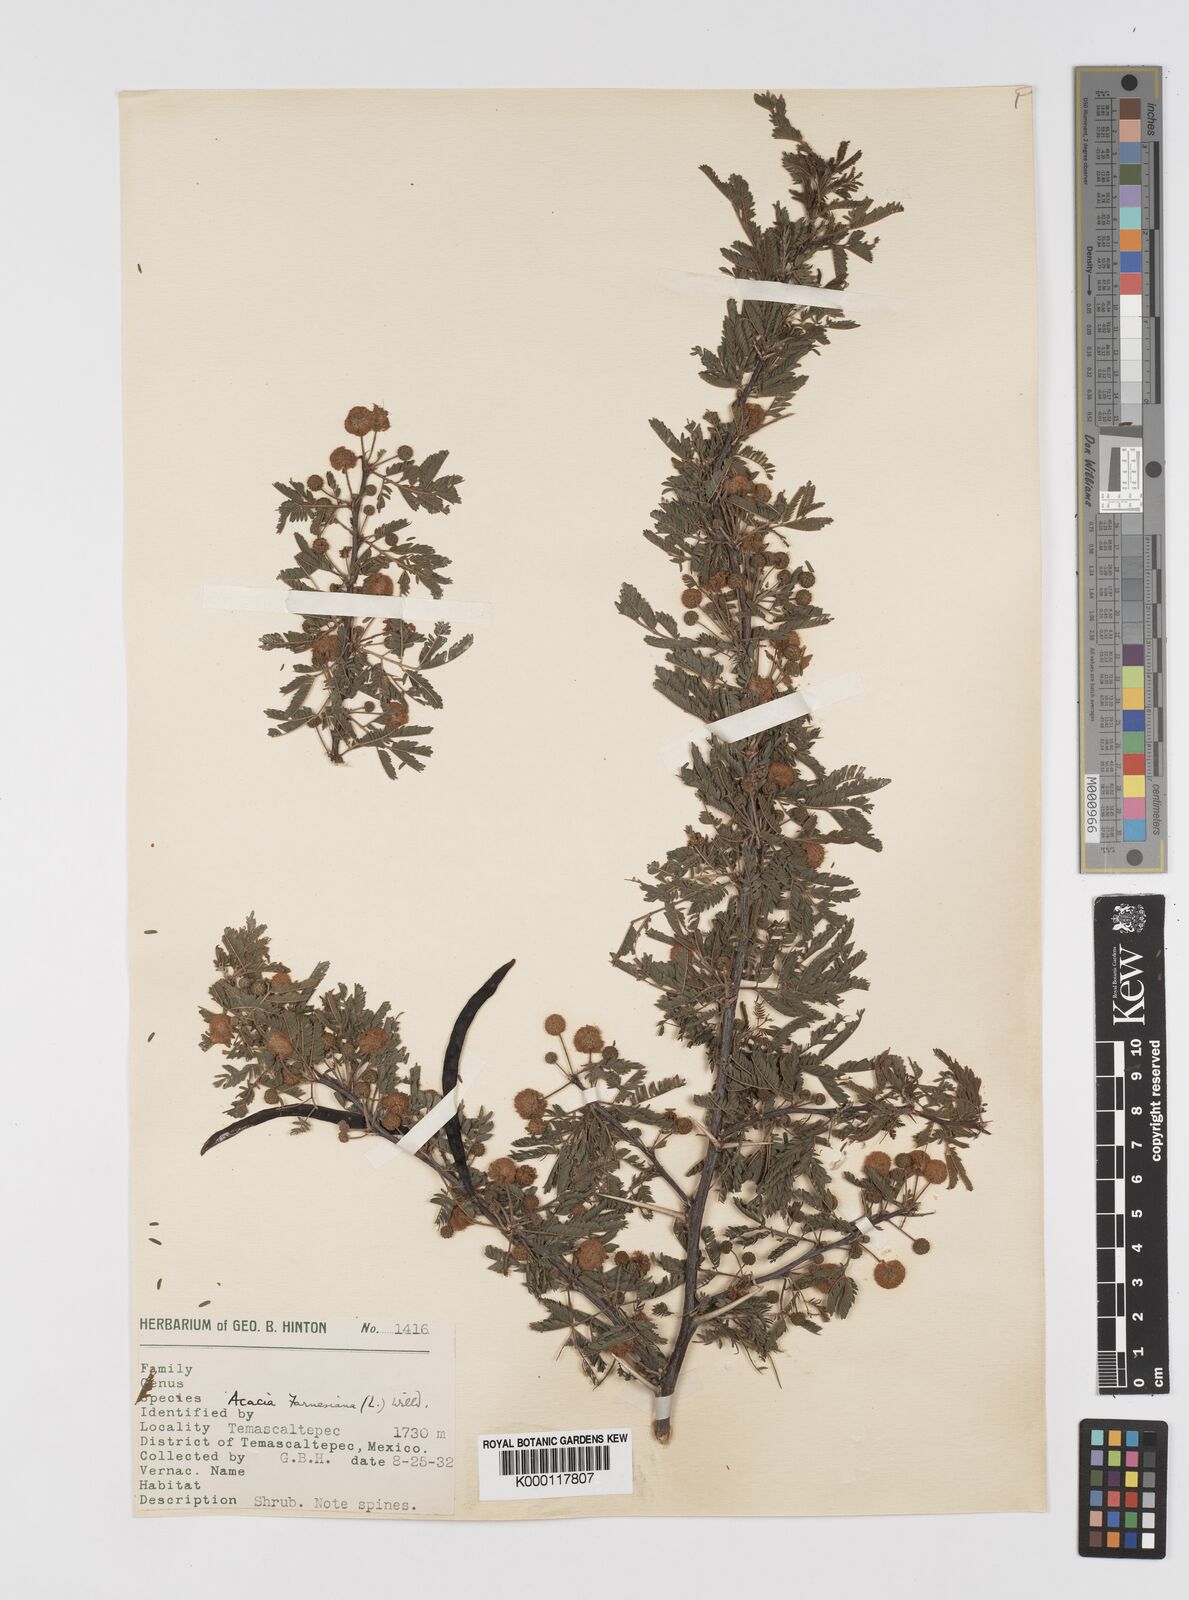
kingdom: Plantae
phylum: Tracheophyta
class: Magnoliopsida
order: Fabales
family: Fabaceae
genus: Vachellia
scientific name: Vachellia farnesiana
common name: Sweet acacia
